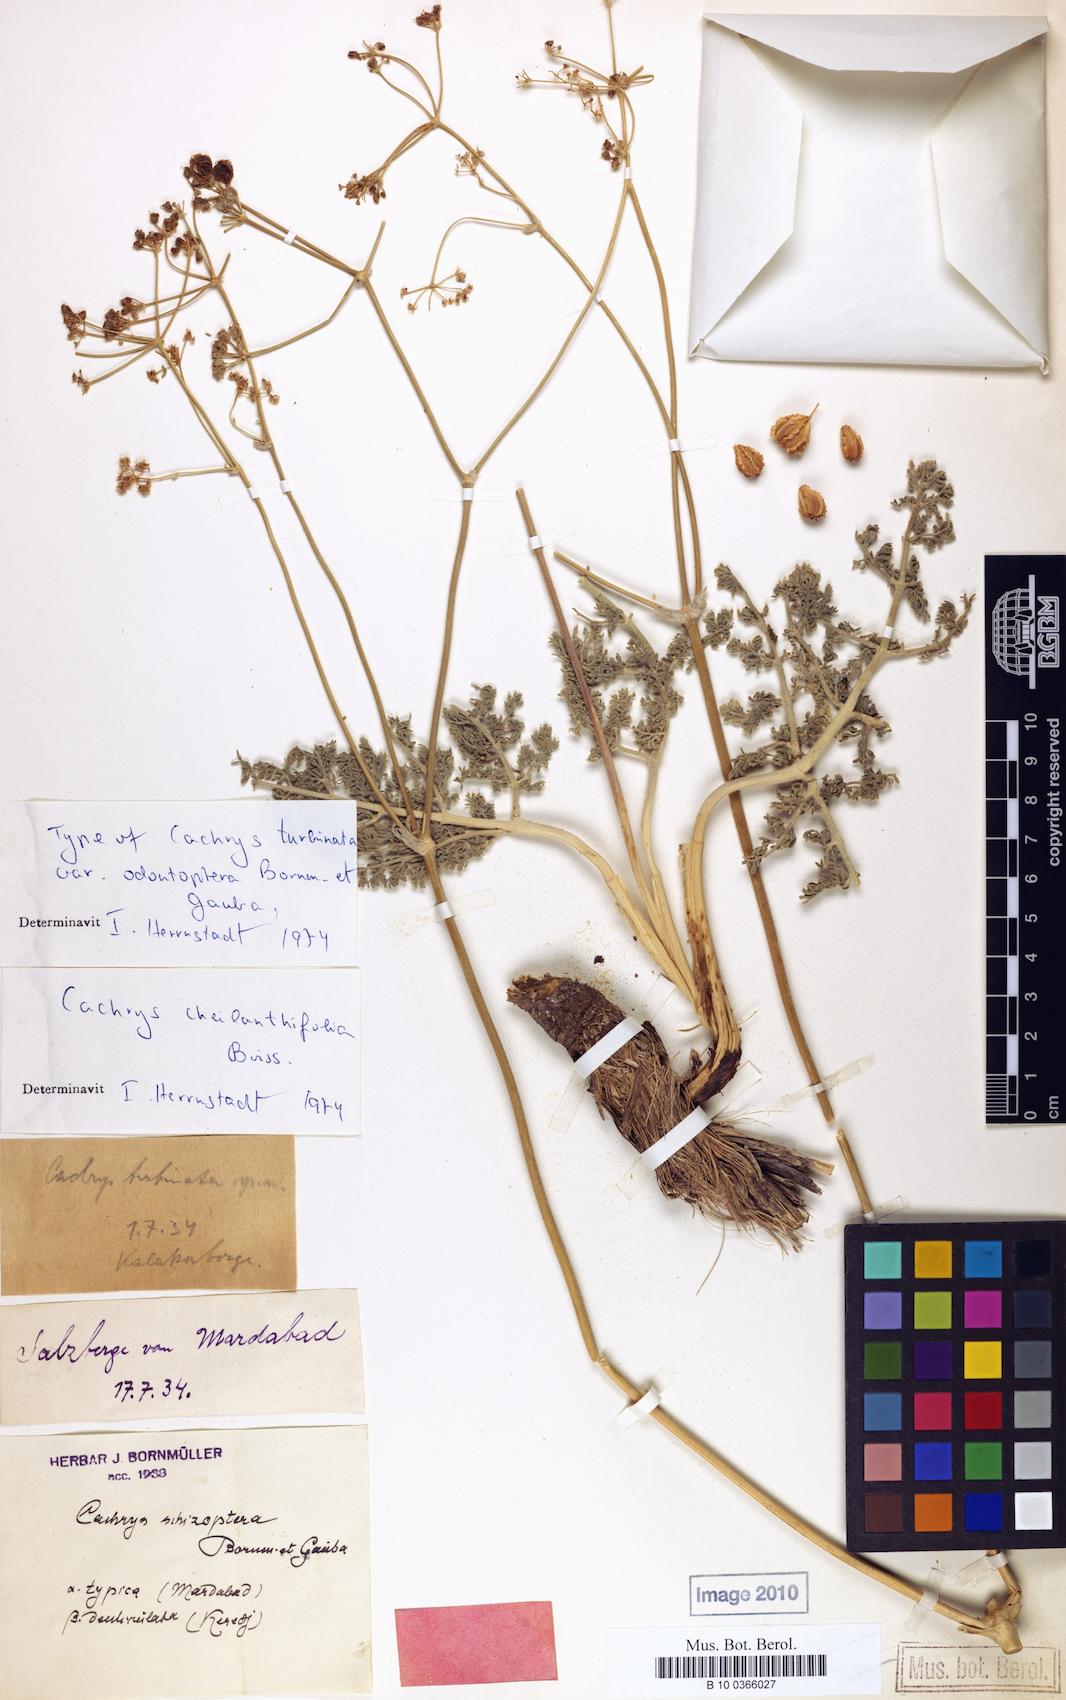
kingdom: Plantae
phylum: Tracheophyta
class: Magnoliopsida
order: Apiales
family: Apiaceae
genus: Prangos
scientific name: Prangos cheilanthifolia
